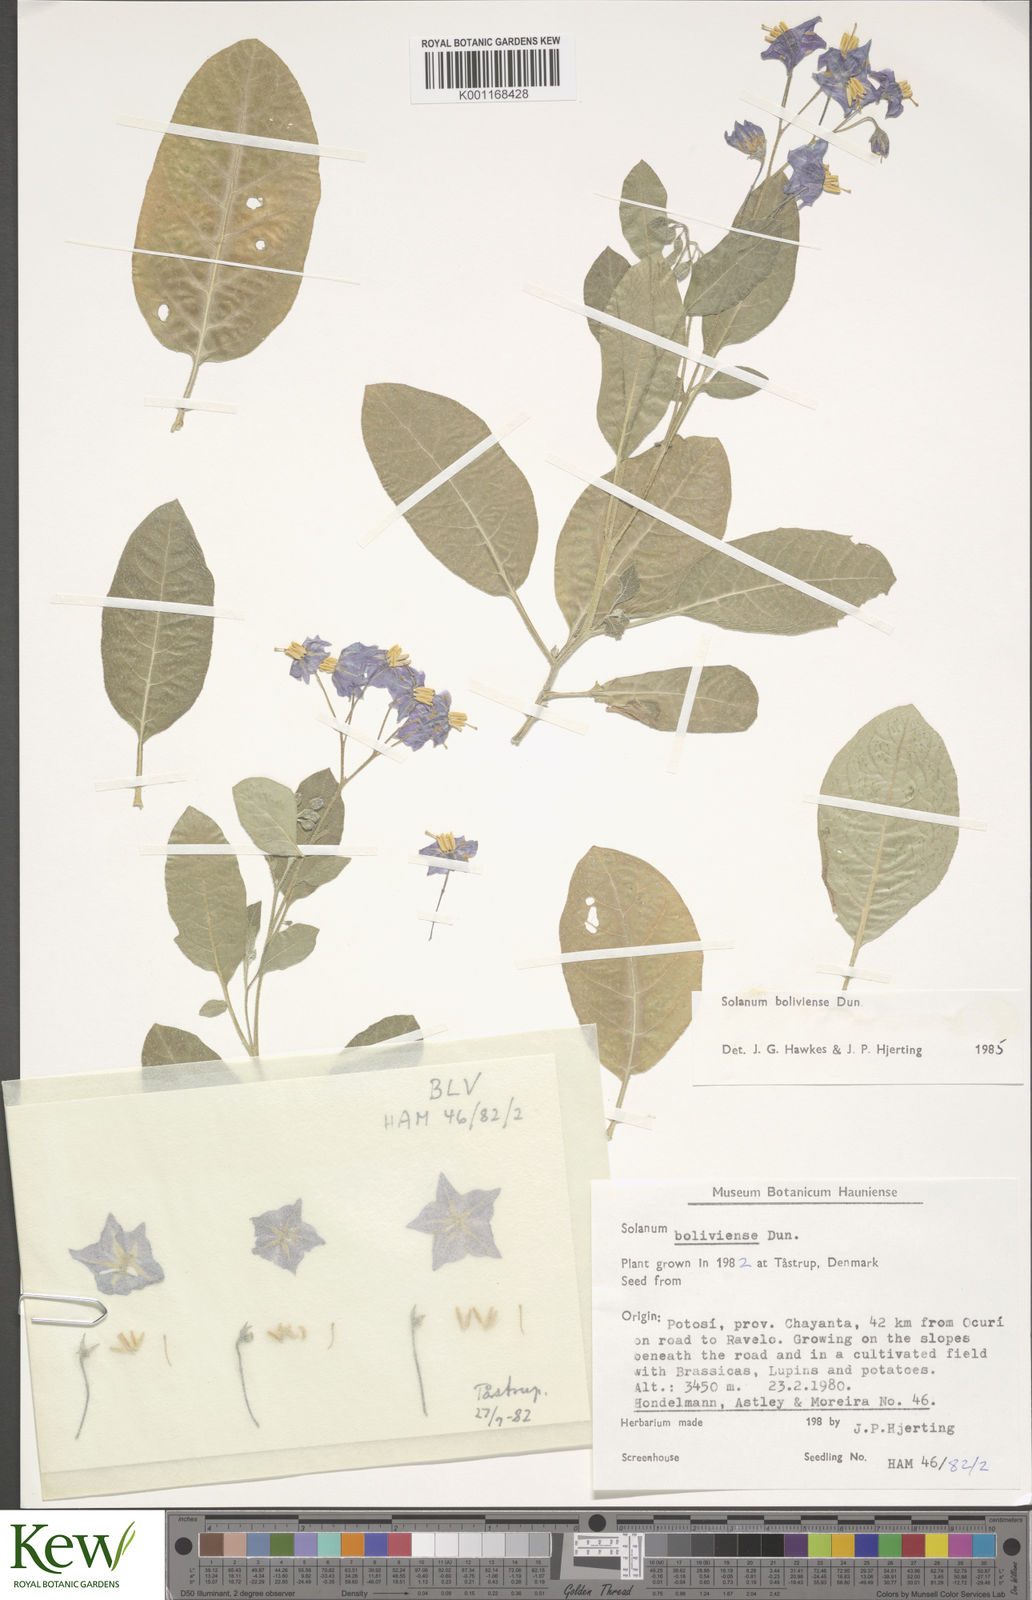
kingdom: Plantae
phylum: Tracheophyta
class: Magnoliopsida
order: Solanales
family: Solanaceae
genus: Solanum
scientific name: Solanum boliviense
